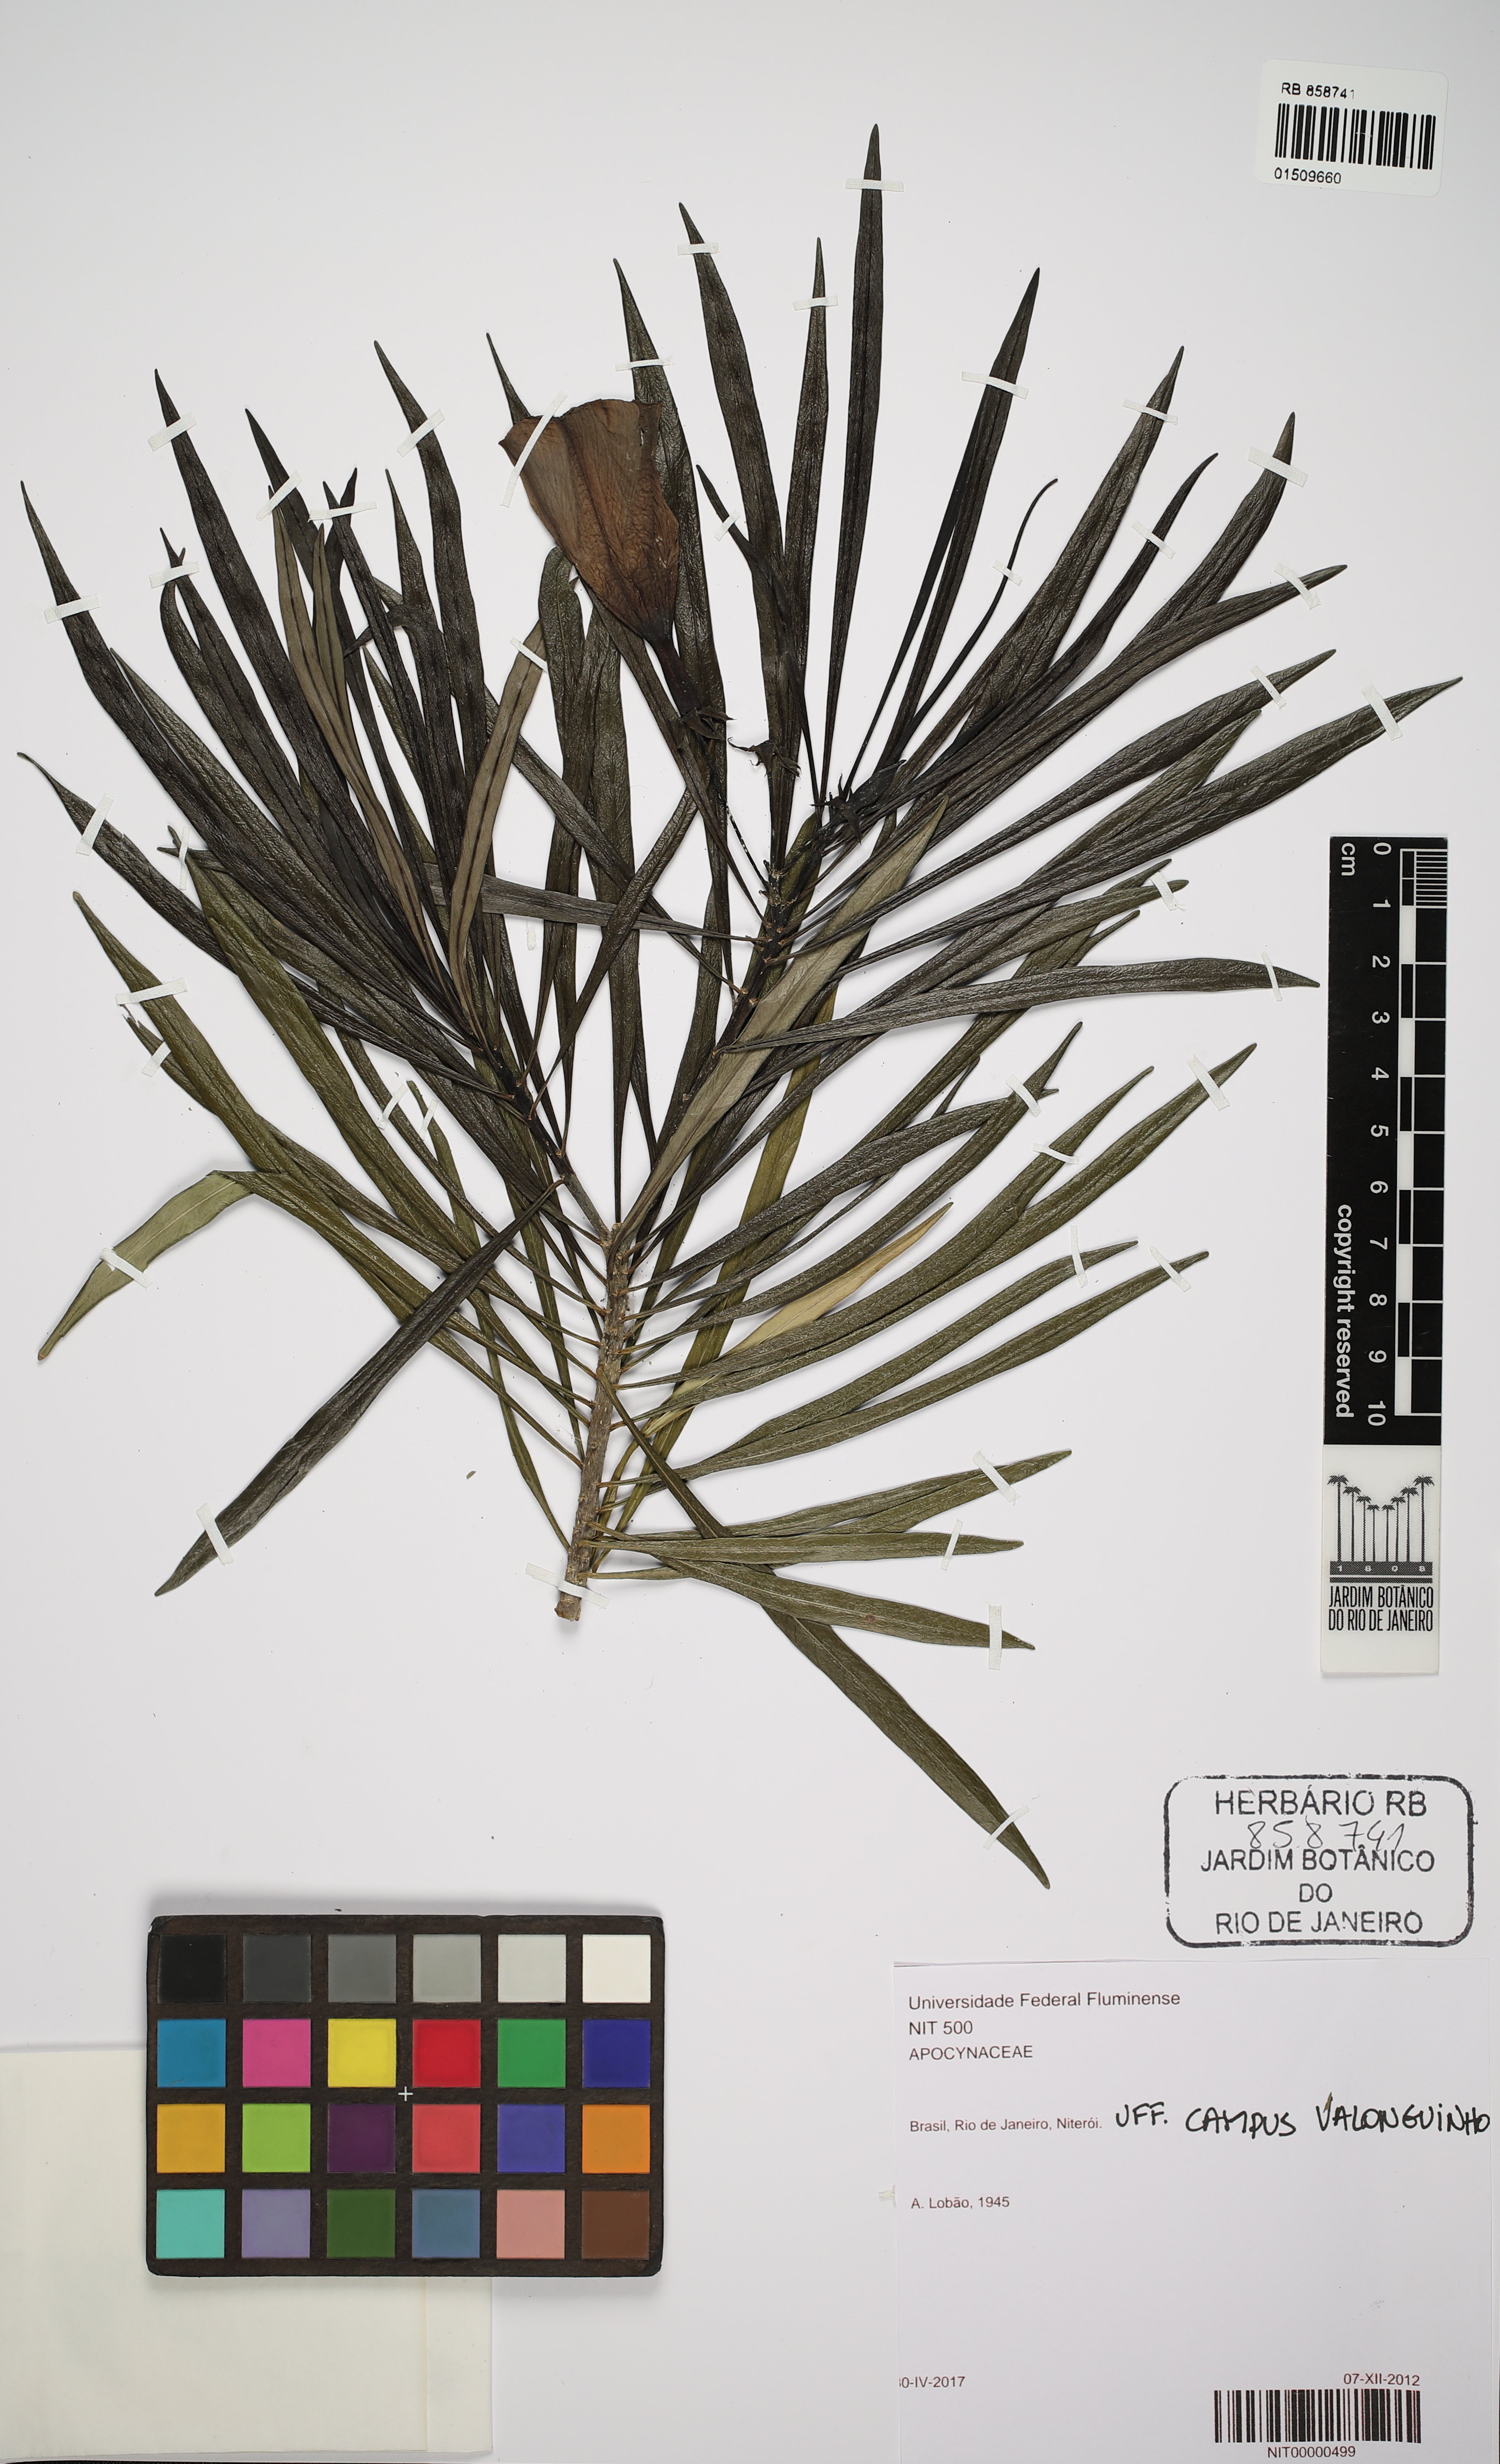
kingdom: Plantae
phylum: Tracheophyta
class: Magnoliopsida
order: Gentianales
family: Apocynaceae
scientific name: Apocynaceae
